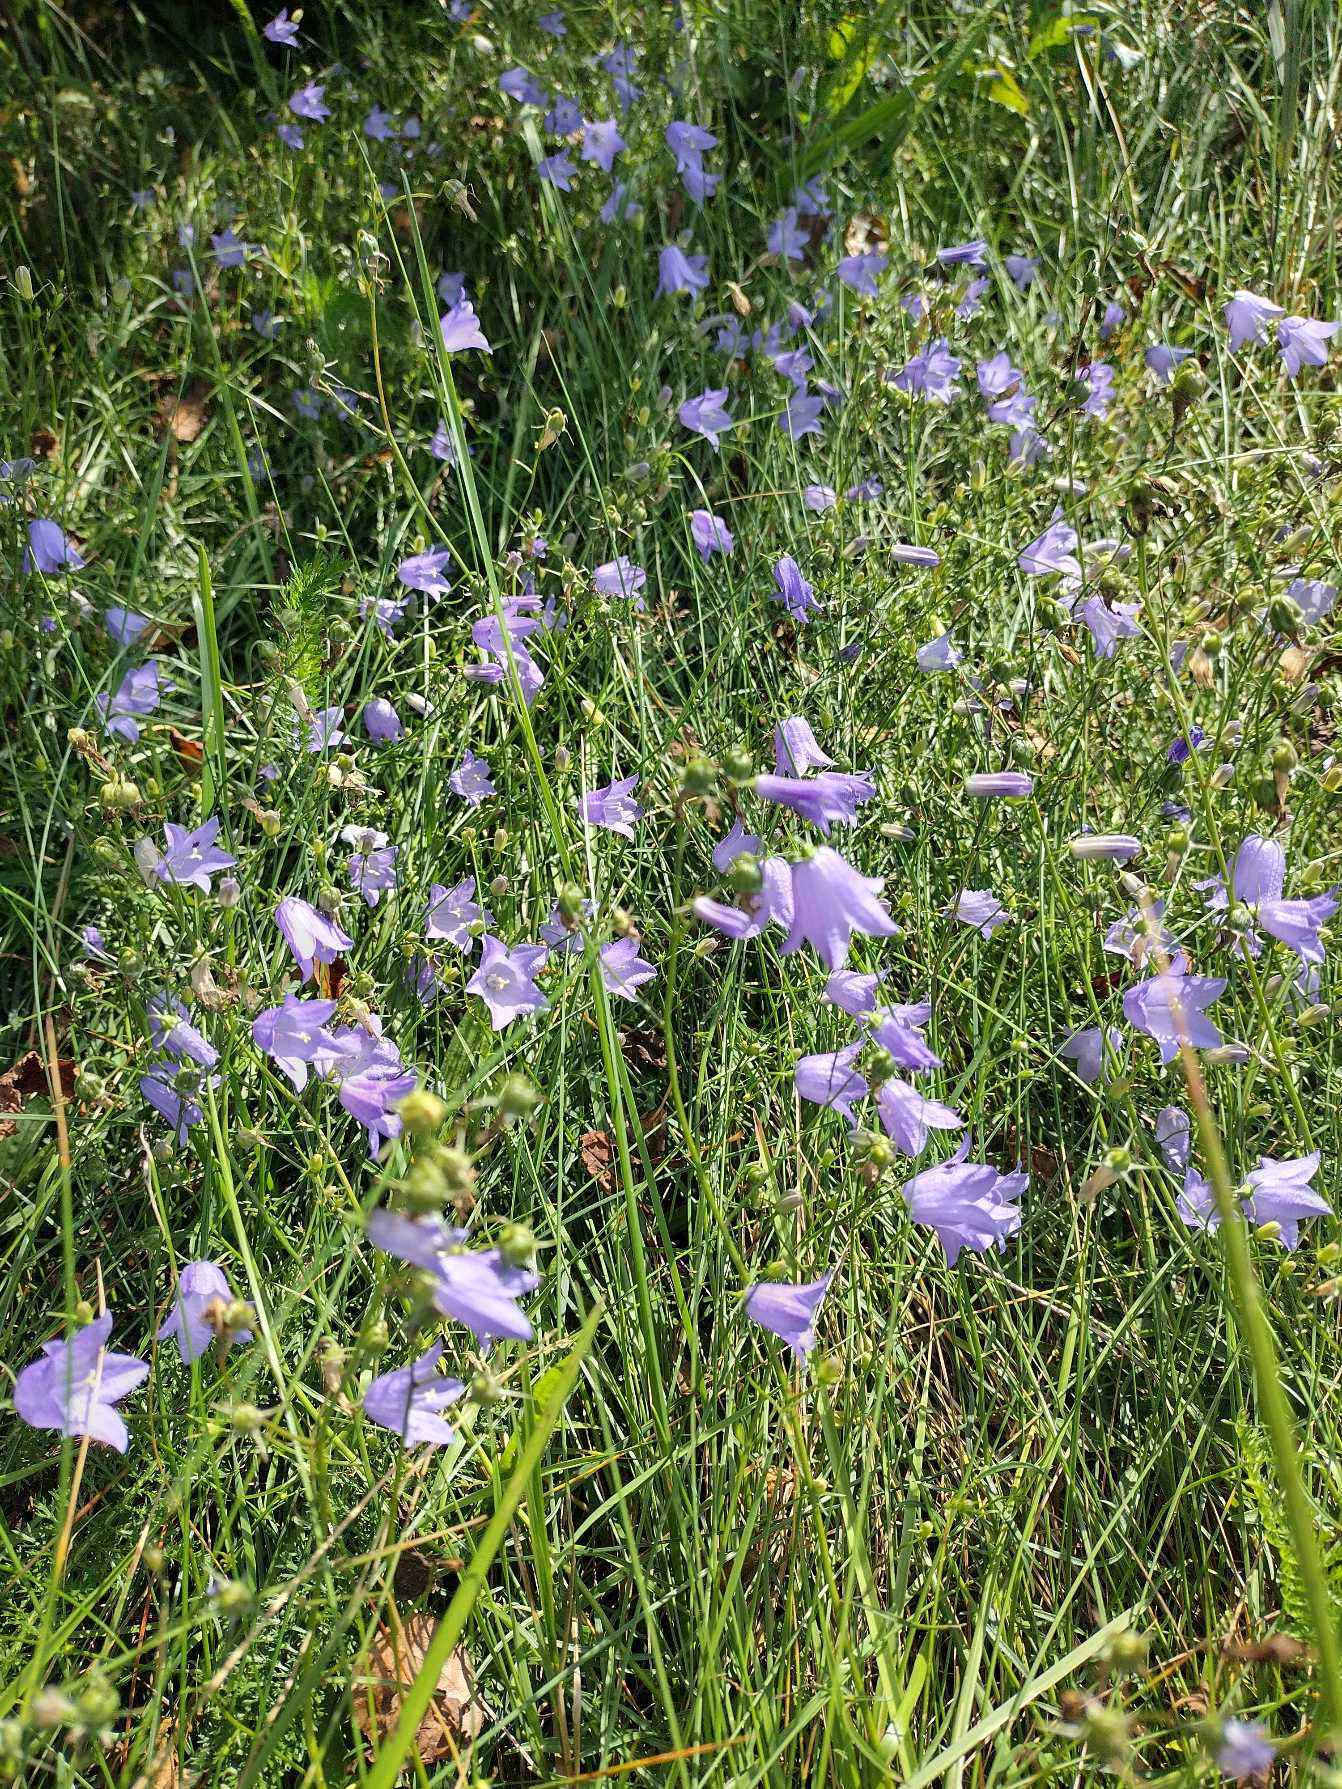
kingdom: Plantae
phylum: Tracheophyta
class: Magnoliopsida
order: Asterales
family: Campanulaceae
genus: Campanula
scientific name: Campanula rotundifolia
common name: Liden klokke
